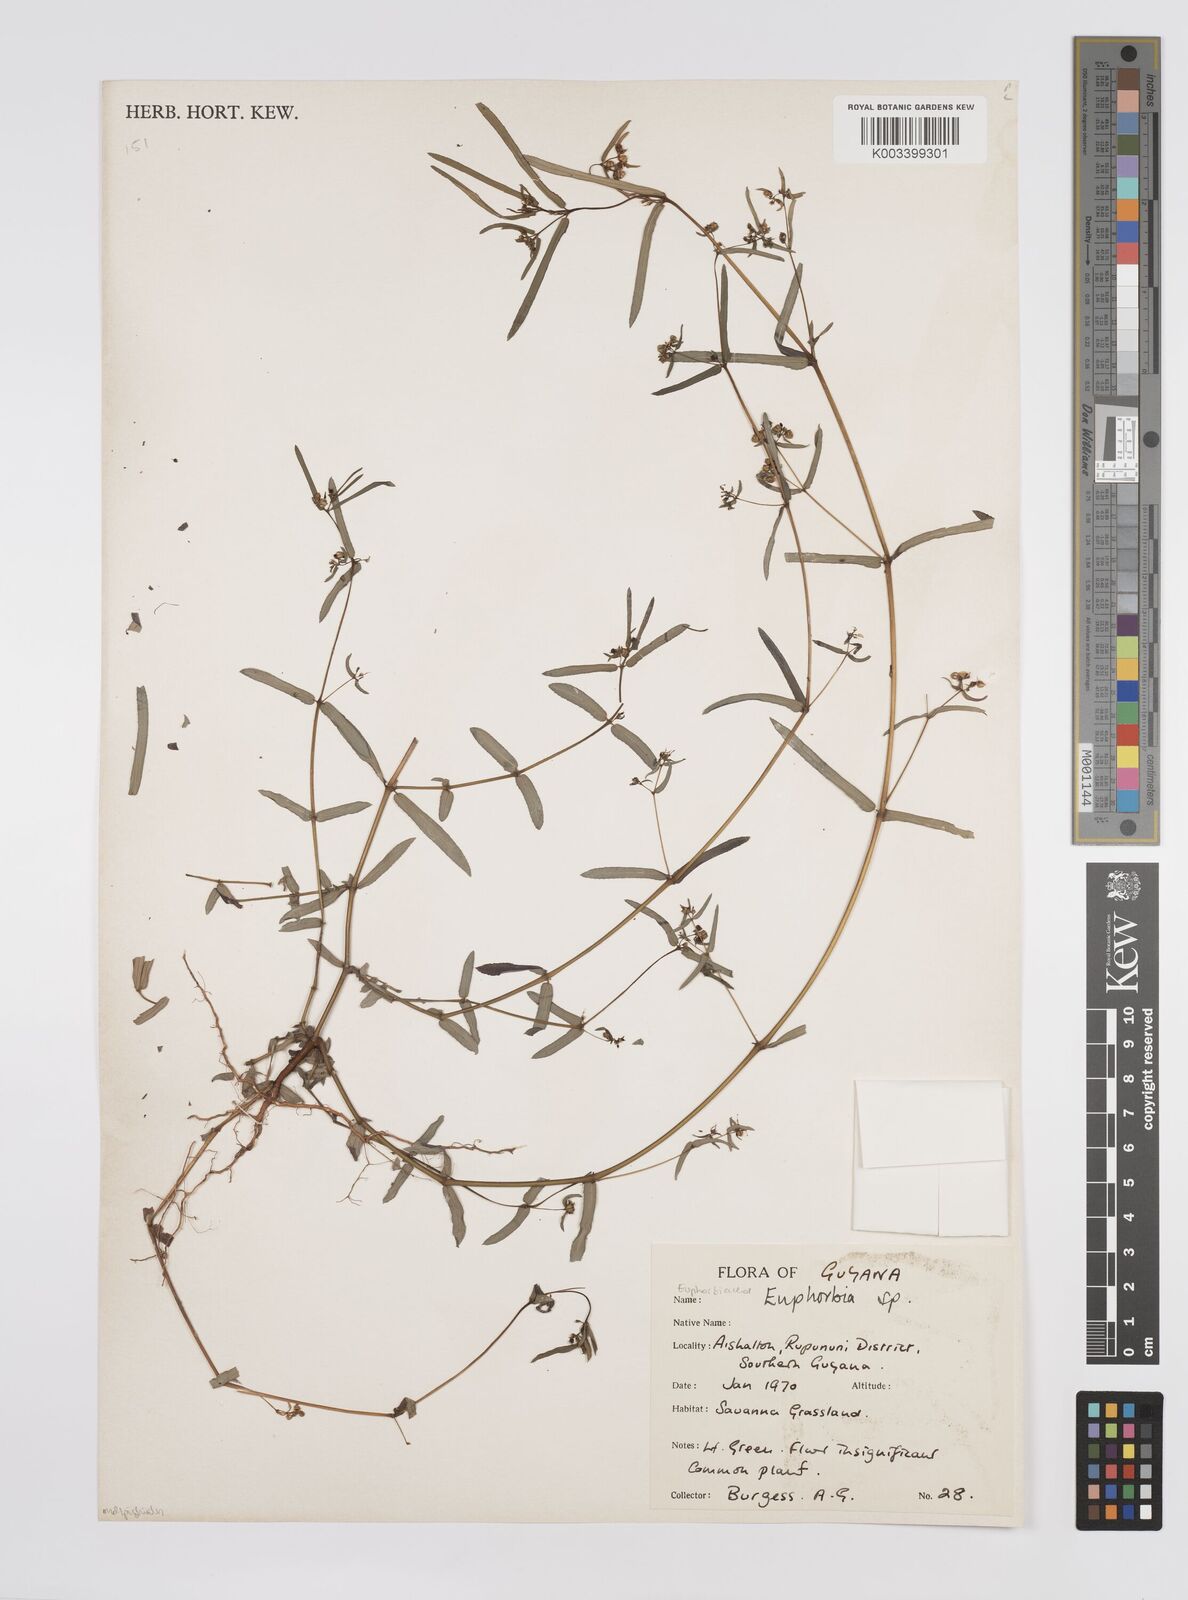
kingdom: Plantae
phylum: Tracheophyta
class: Magnoliopsida
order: Malpighiales
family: Euphorbiaceae
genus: Euphorbia
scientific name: Euphorbia
